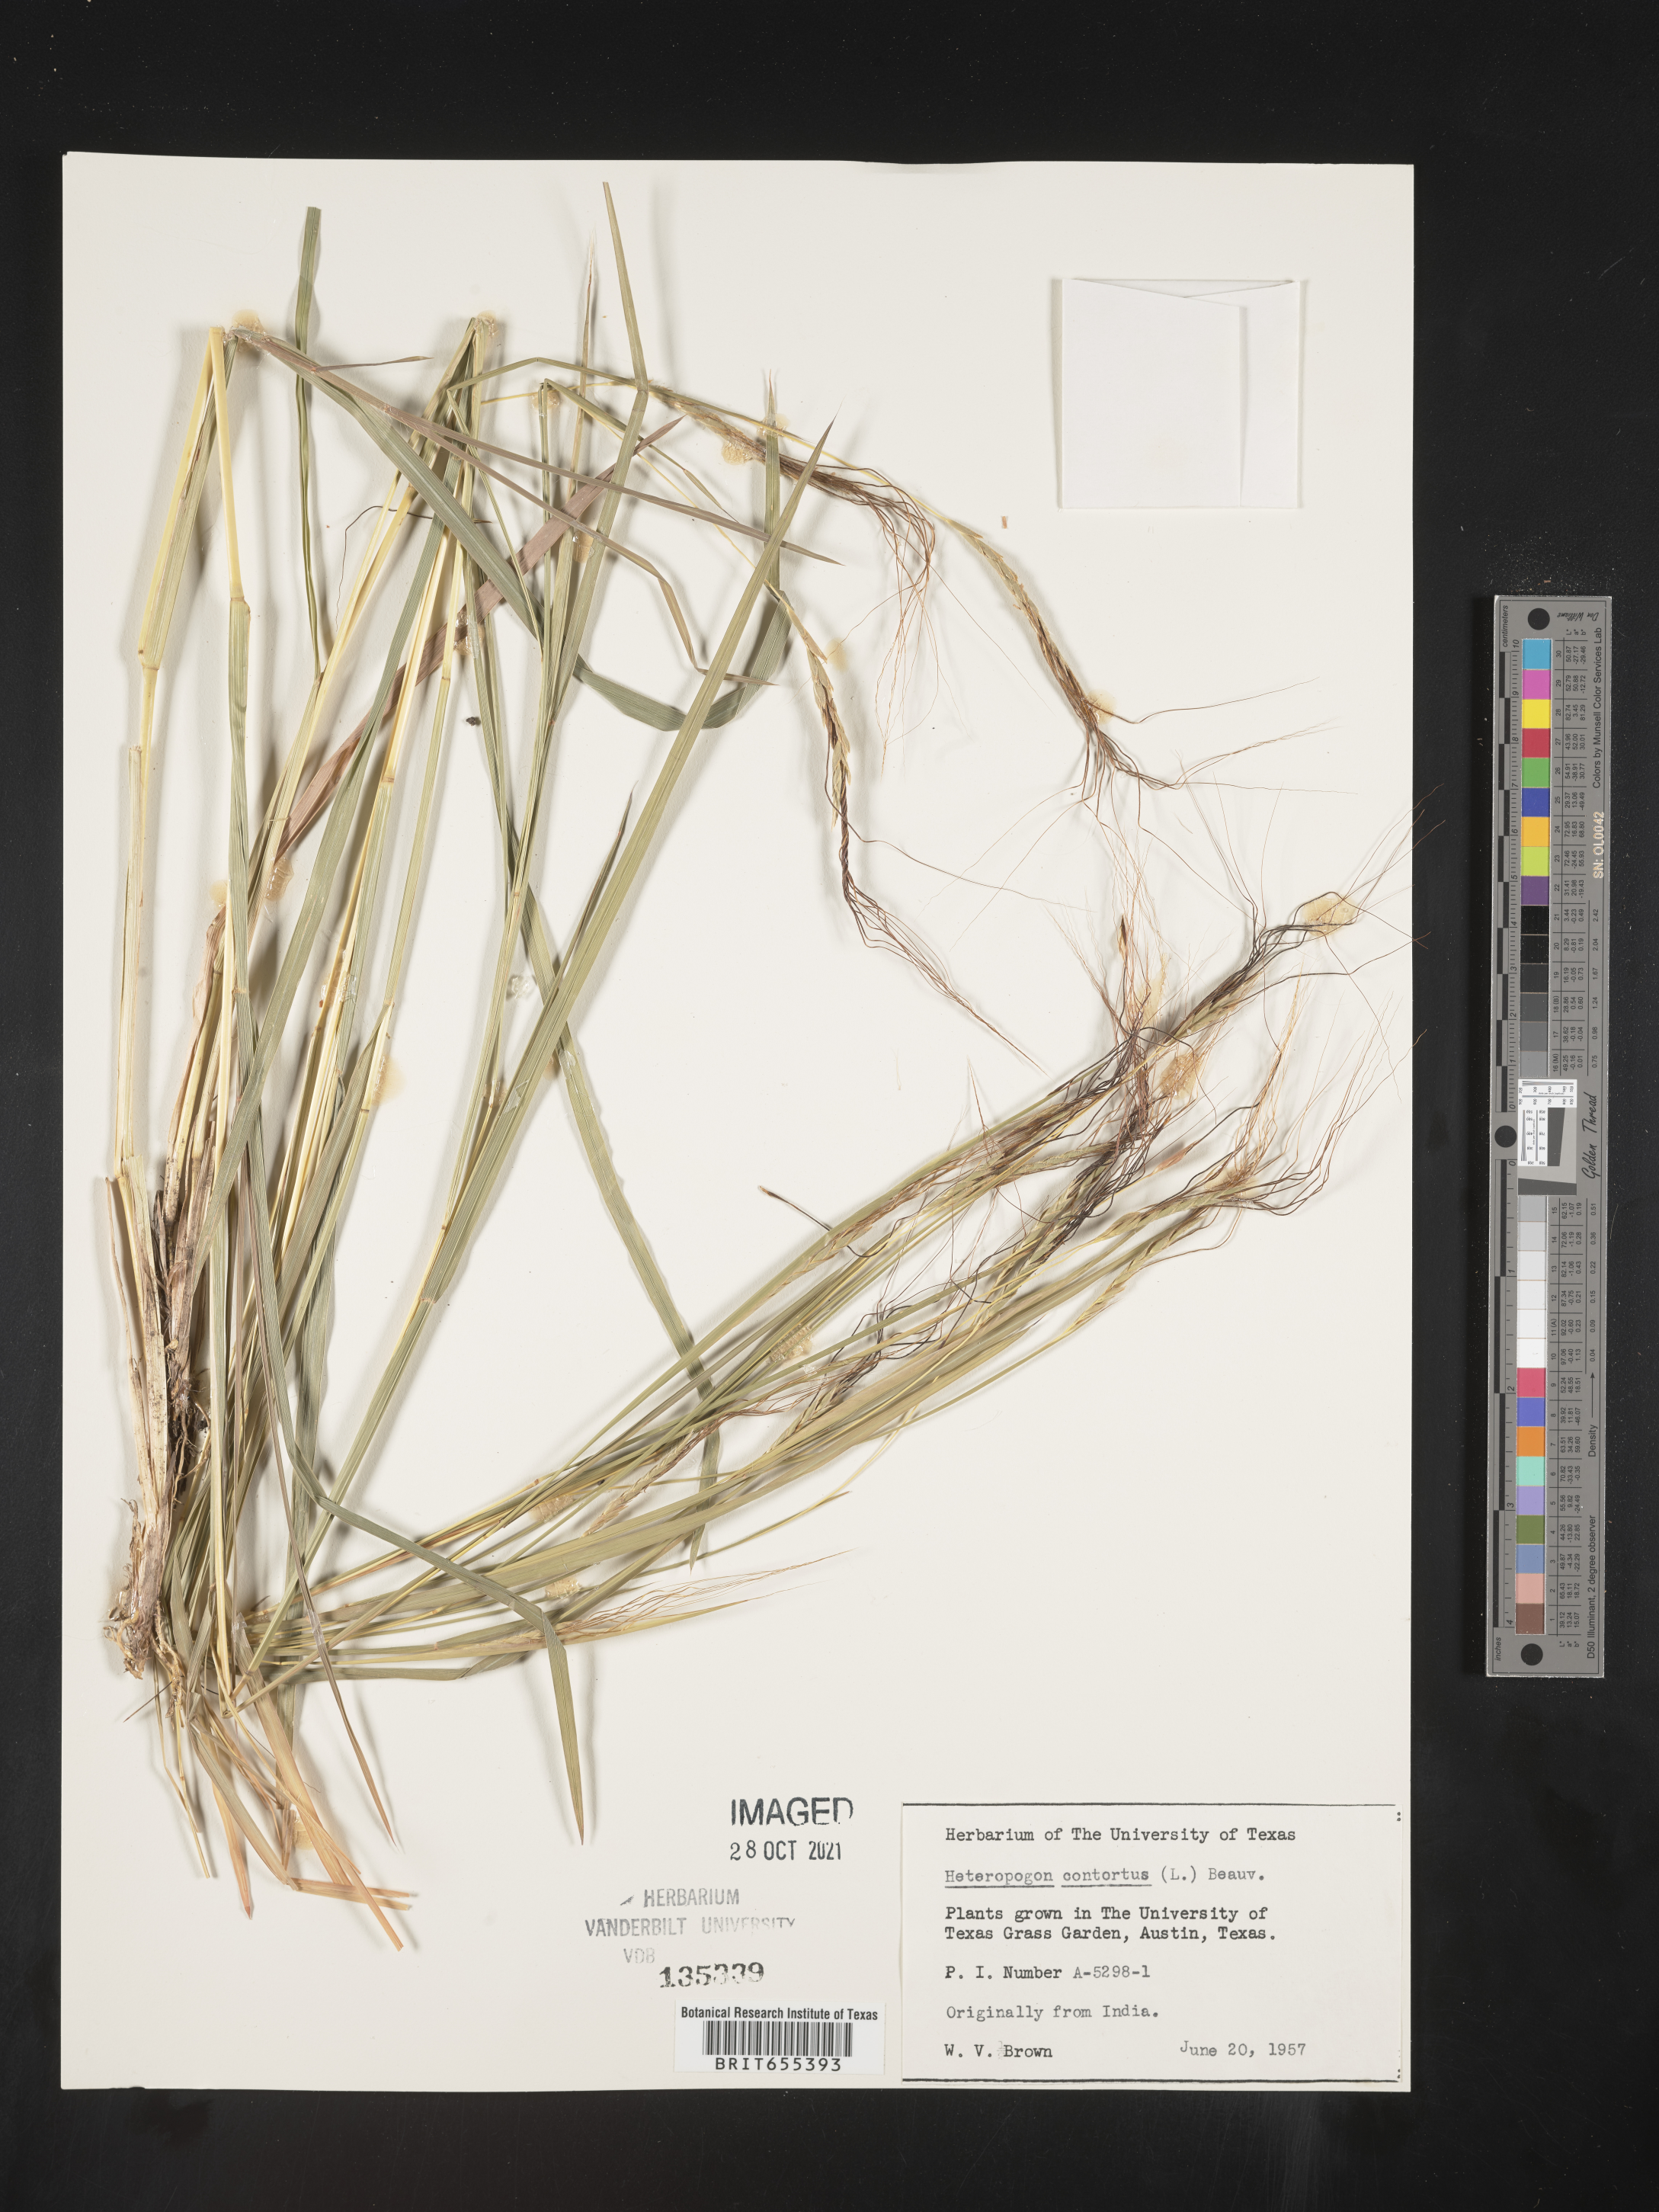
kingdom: Plantae
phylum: Tracheophyta
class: Liliopsida
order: Poales
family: Poaceae
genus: Heteropogon
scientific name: Heteropogon
